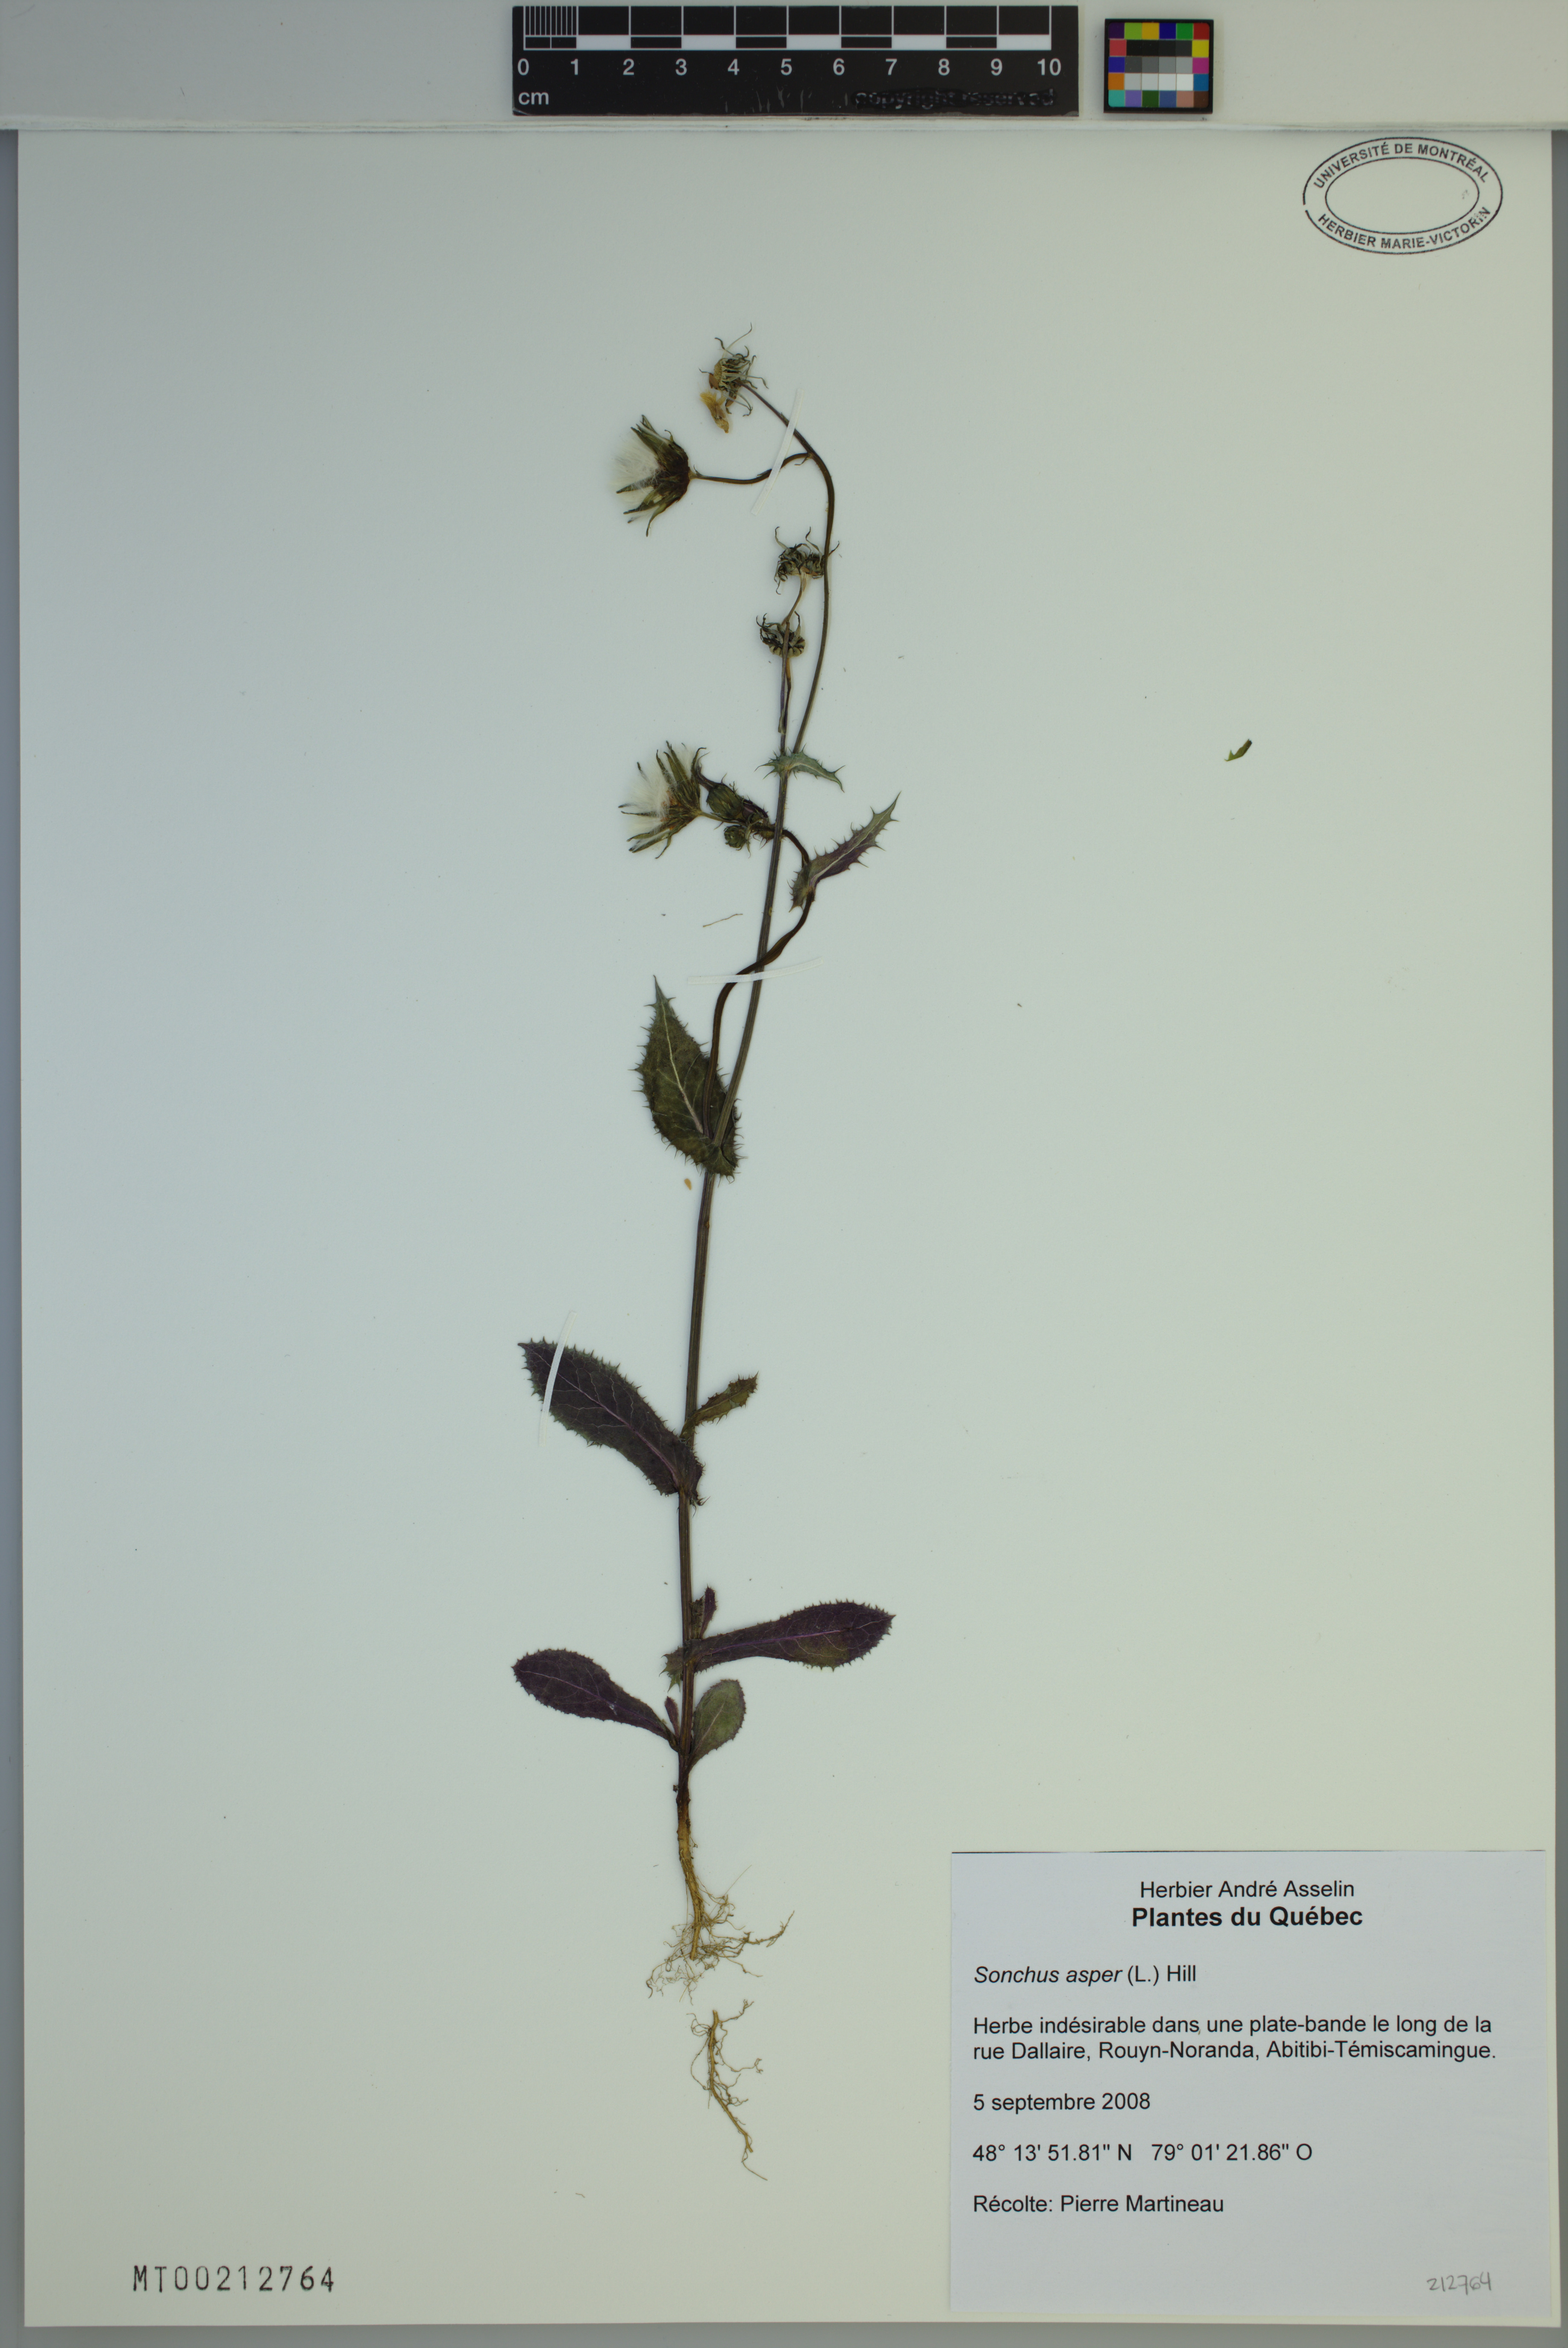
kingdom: Plantae
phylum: Tracheophyta
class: Magnoliopsida
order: Asterales
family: Asteraceae
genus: Sonchus
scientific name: Sonchus asper
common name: Prickly sow-thistle
